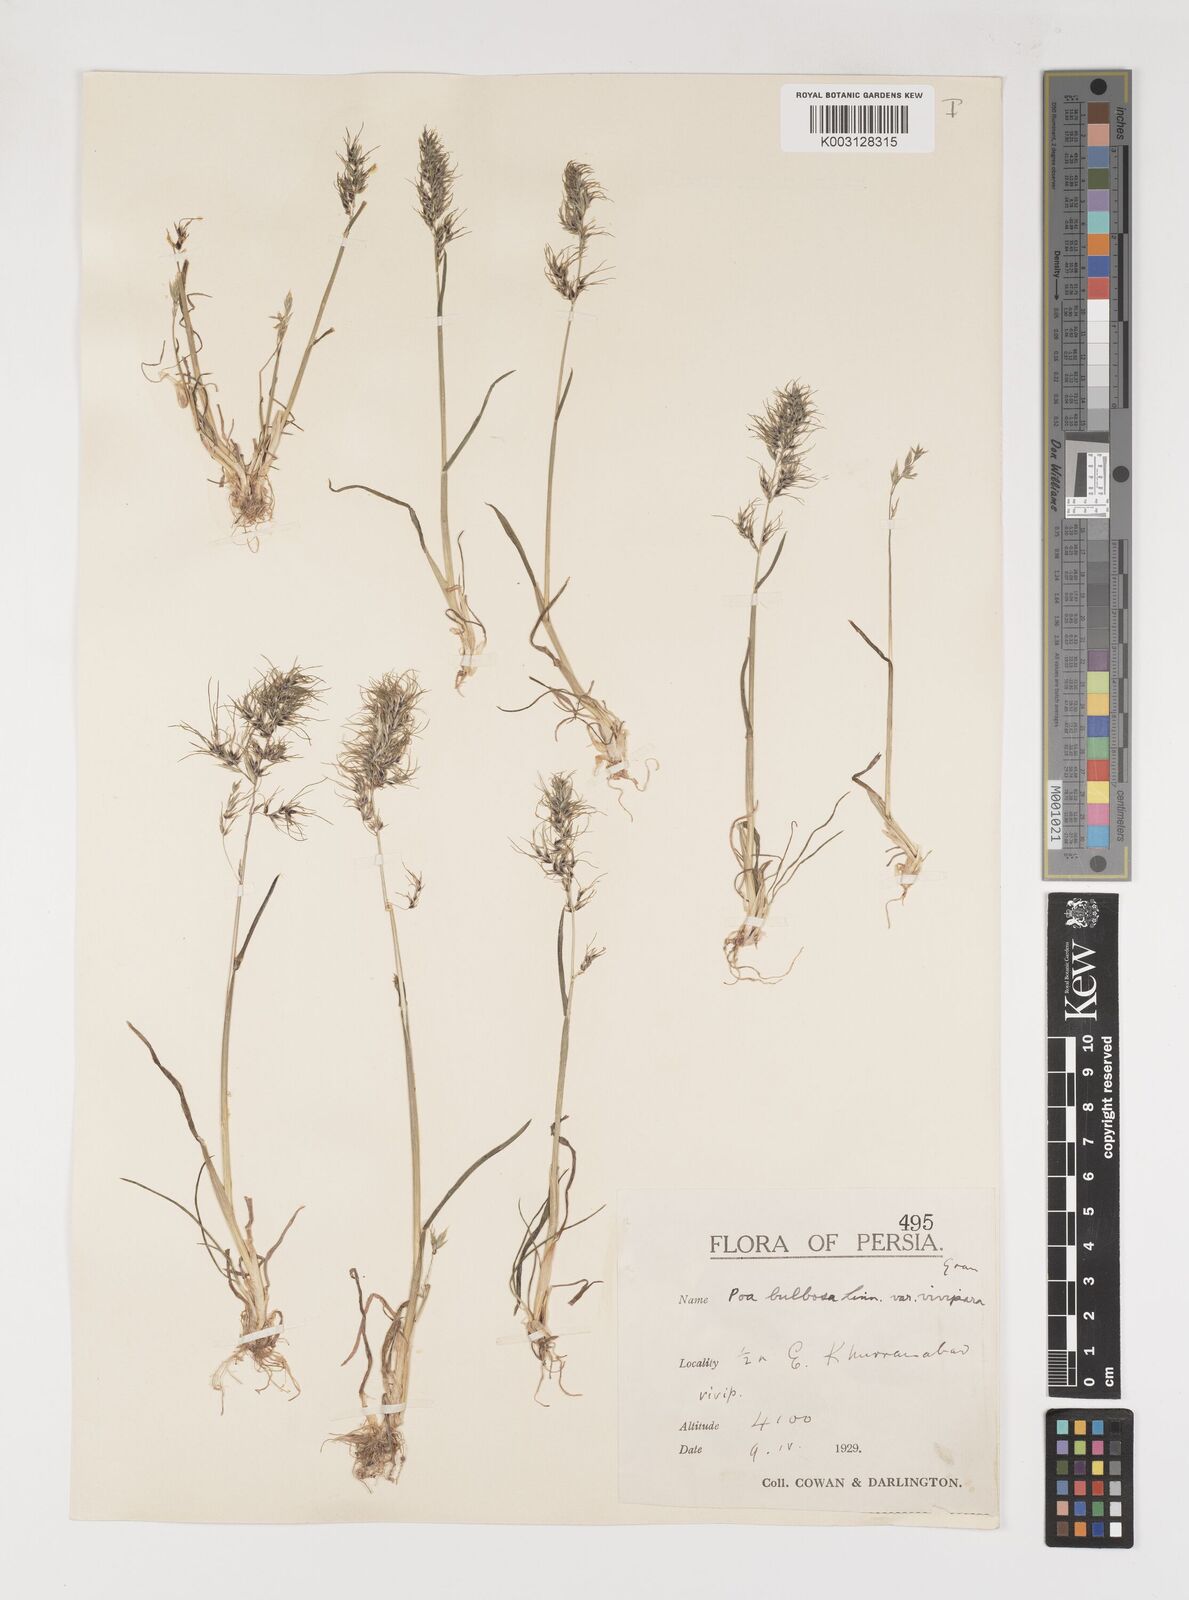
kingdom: Plantae
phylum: Tracheophyta
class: Liliopsida
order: Poales
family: Poaceae
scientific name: Poaceae
